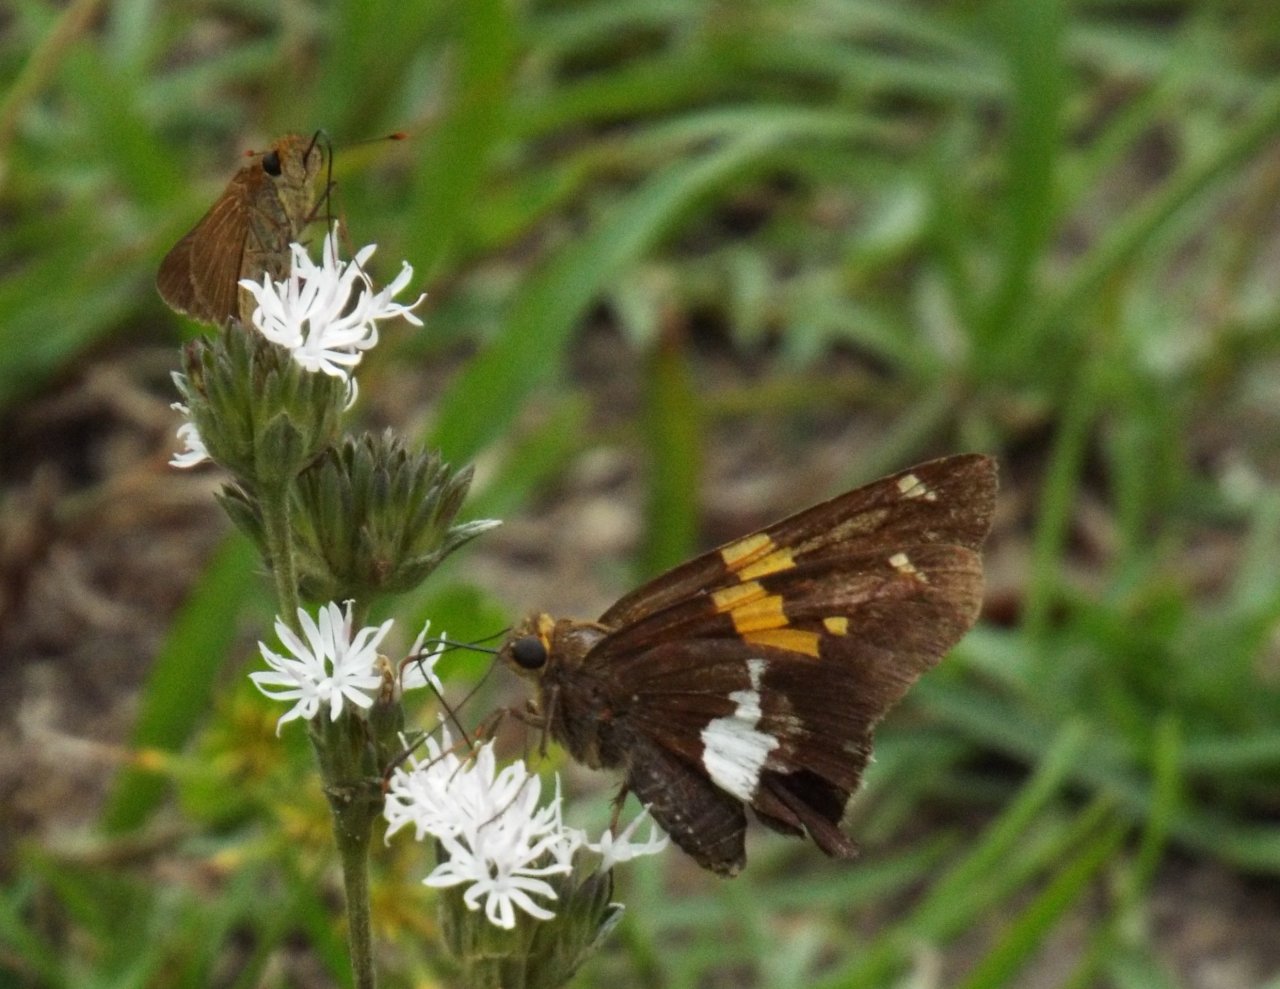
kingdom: Animalia
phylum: Arthropoda
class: Insecta
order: Lepidoptera
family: Hesperiidae
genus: Epargyreus
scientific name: Epargyreus clarus
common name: Silver-spotted Skipper
